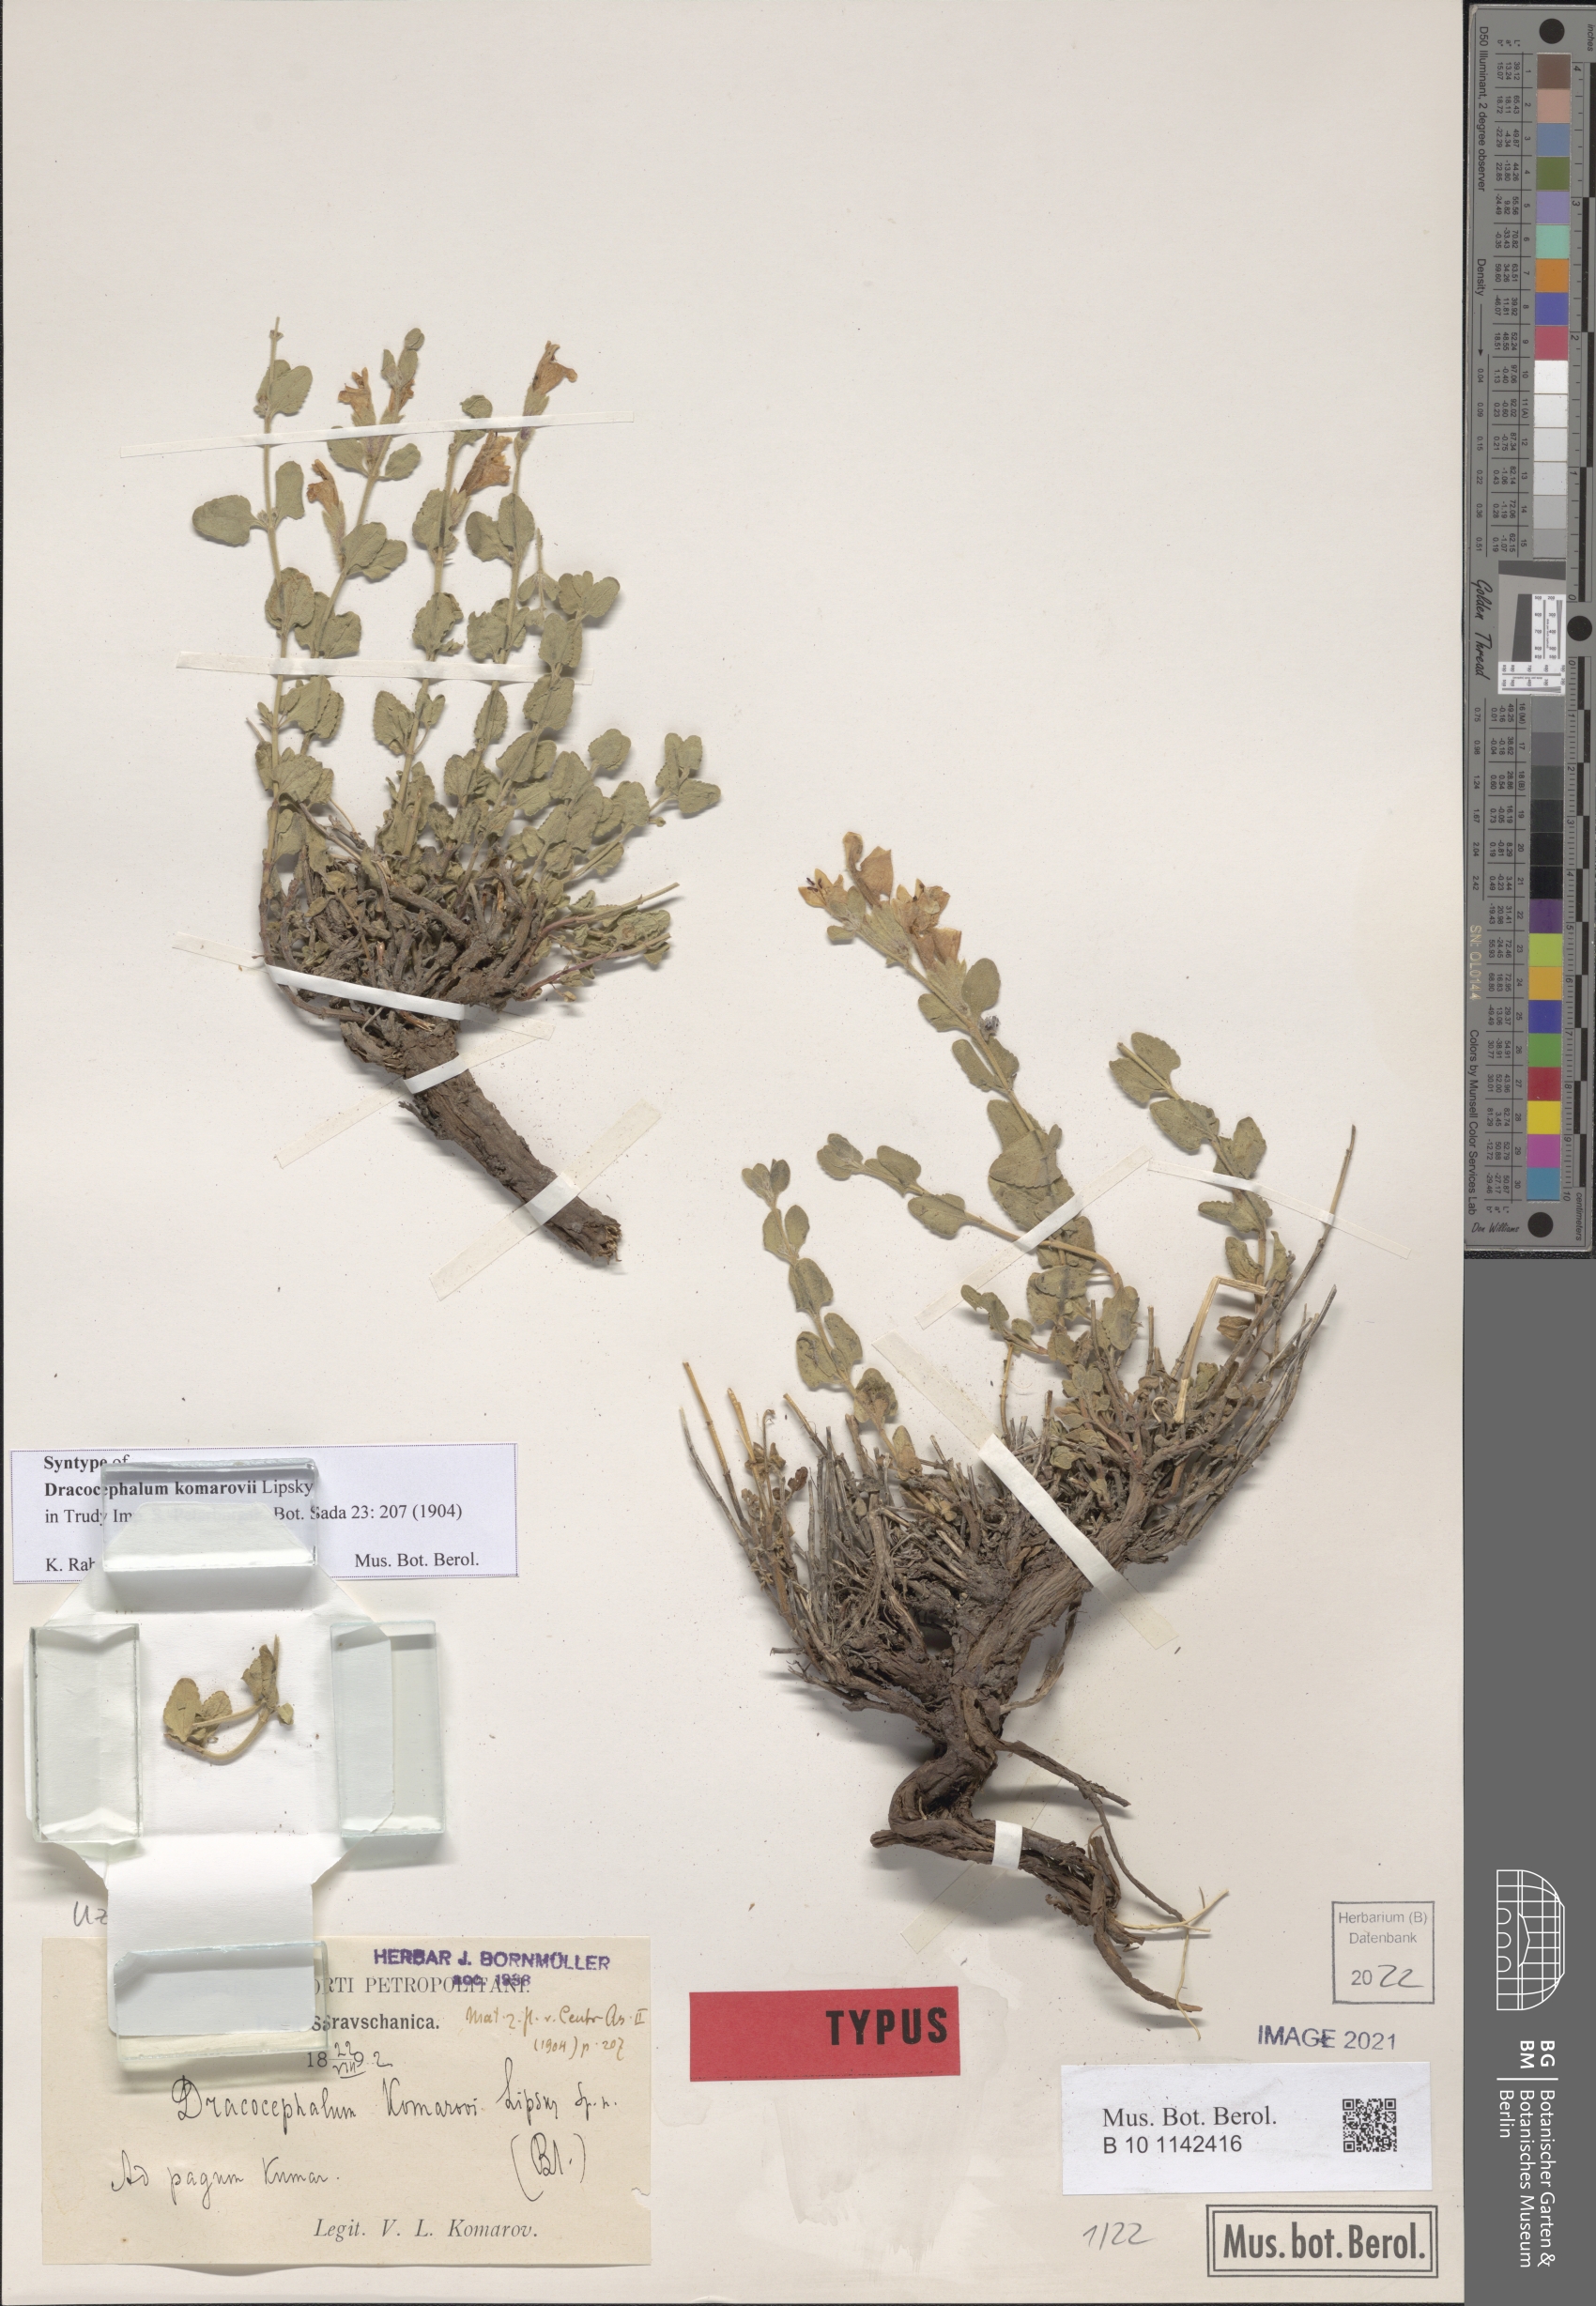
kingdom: Plantae
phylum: Tracheophyta
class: Magnoliopsida
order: Lamiales
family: Lamiaceae
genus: Dracocephalum
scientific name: Dracocephalum komarovii
